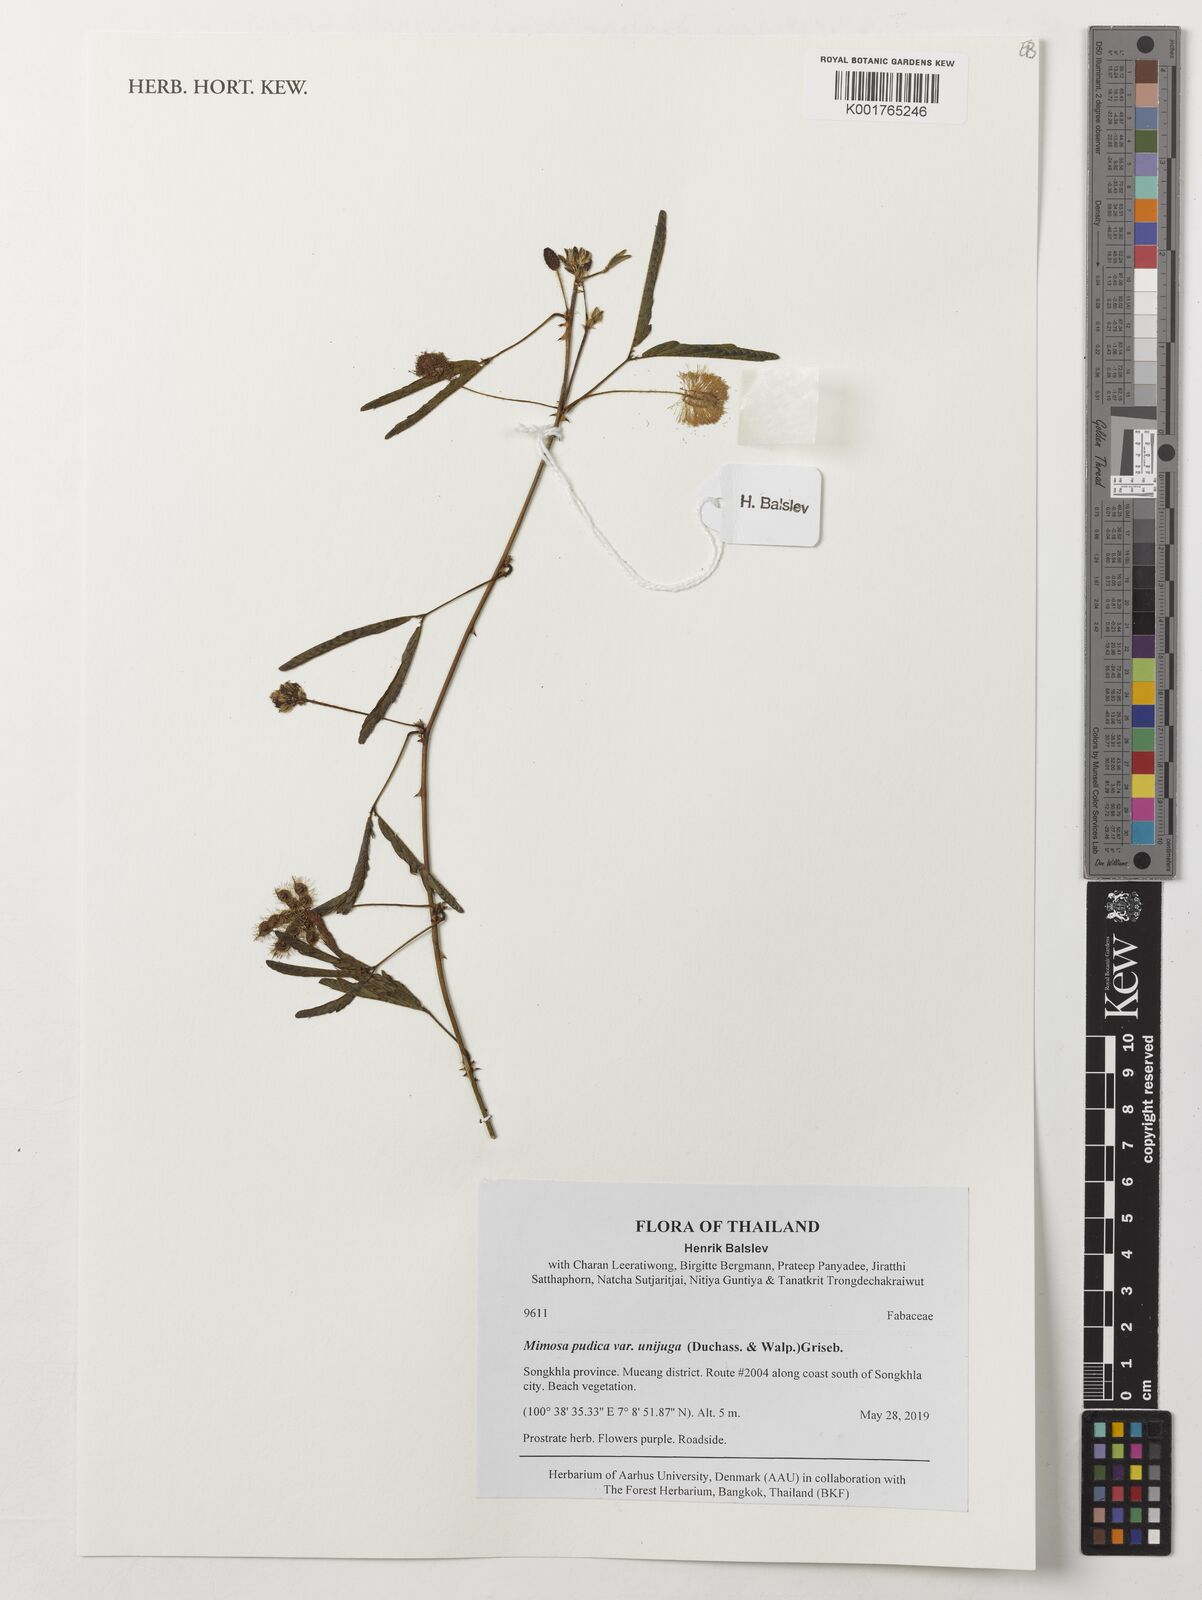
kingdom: Plantae
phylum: Tracheophyta
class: Magnoliopsida
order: Fabales
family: Fabaceae
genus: Mimosa
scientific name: Mimosa pudica
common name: Sensitive plant
